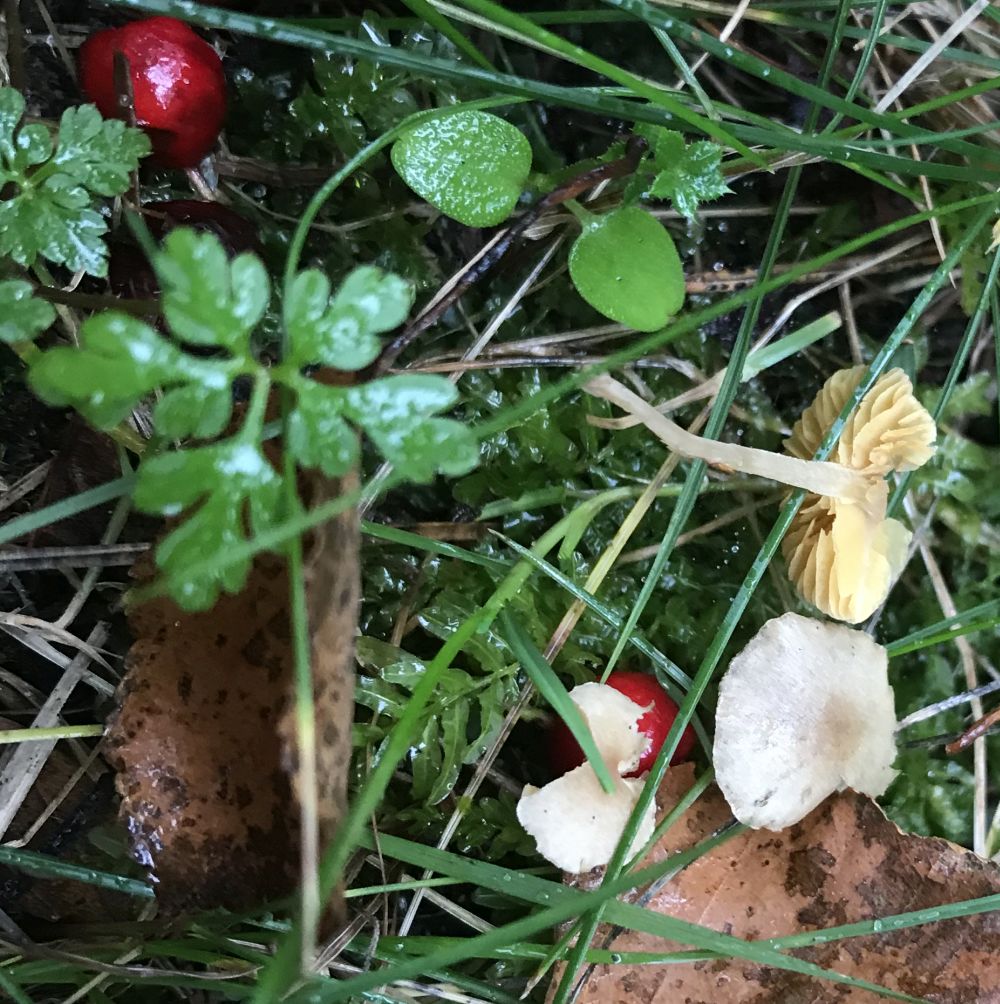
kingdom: Fungi
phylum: Basidiomycota
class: Agaricomycetes
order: Agaricales
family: Tubariaceae
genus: Tubaria
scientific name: Tubaria dispersa
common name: tjørne-fnughat
